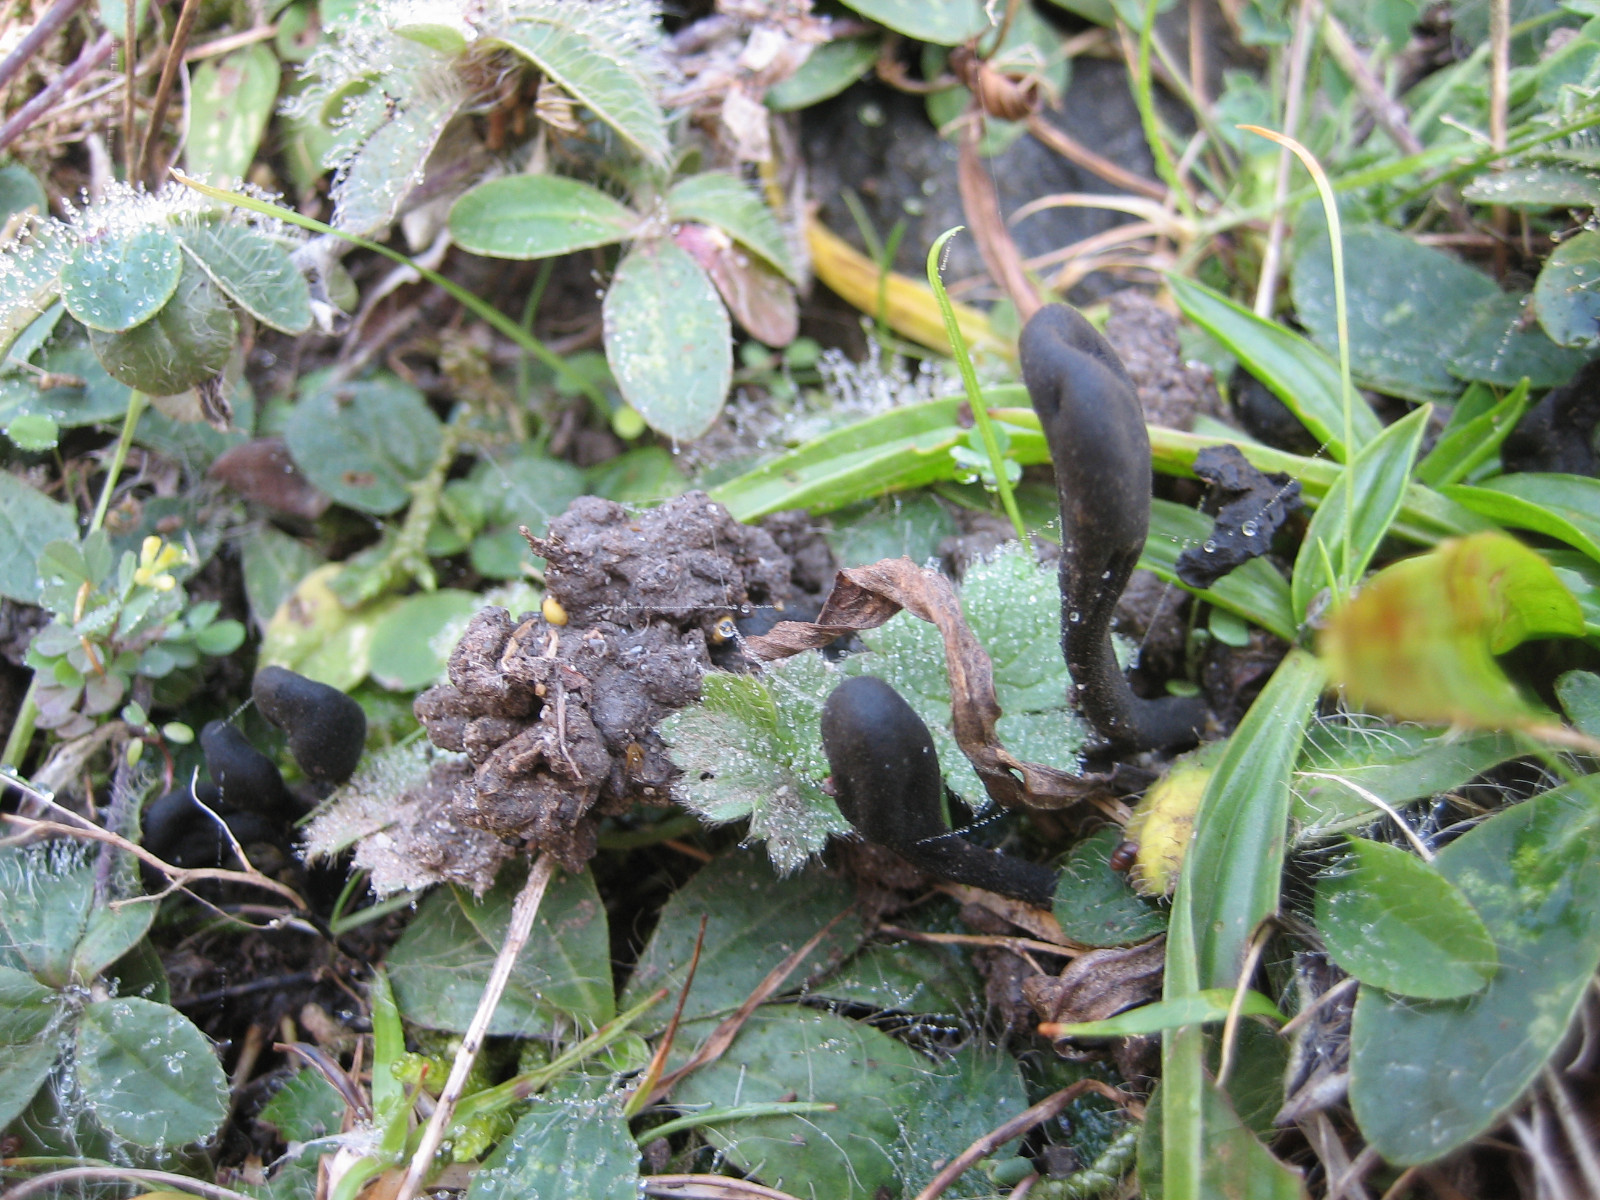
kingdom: Fungi
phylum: Ascomycota
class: Geoglossomycetes
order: Geoglossales
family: Geoglossaceae
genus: Trichoglossum
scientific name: Trichoglossum hirsutum
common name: håret jordtunge
